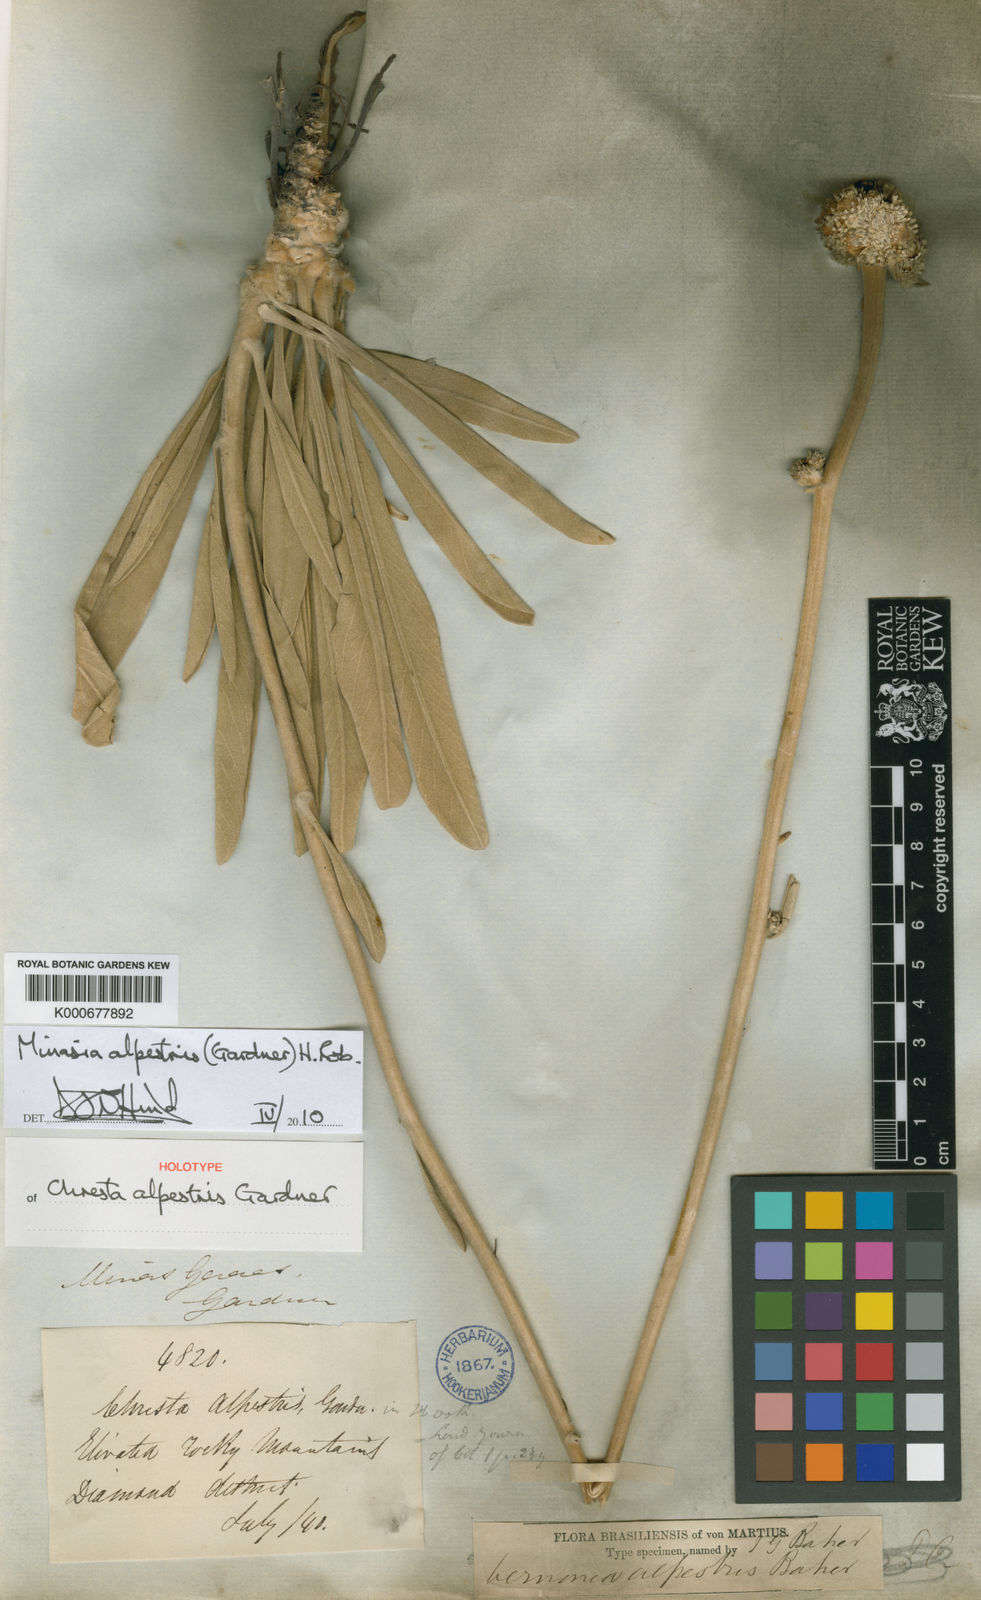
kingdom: Plantae
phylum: Tracheophyta
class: Magnoliopsida
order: Asterales
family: Asteraceae
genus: Minasia
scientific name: Minasia alpestris
